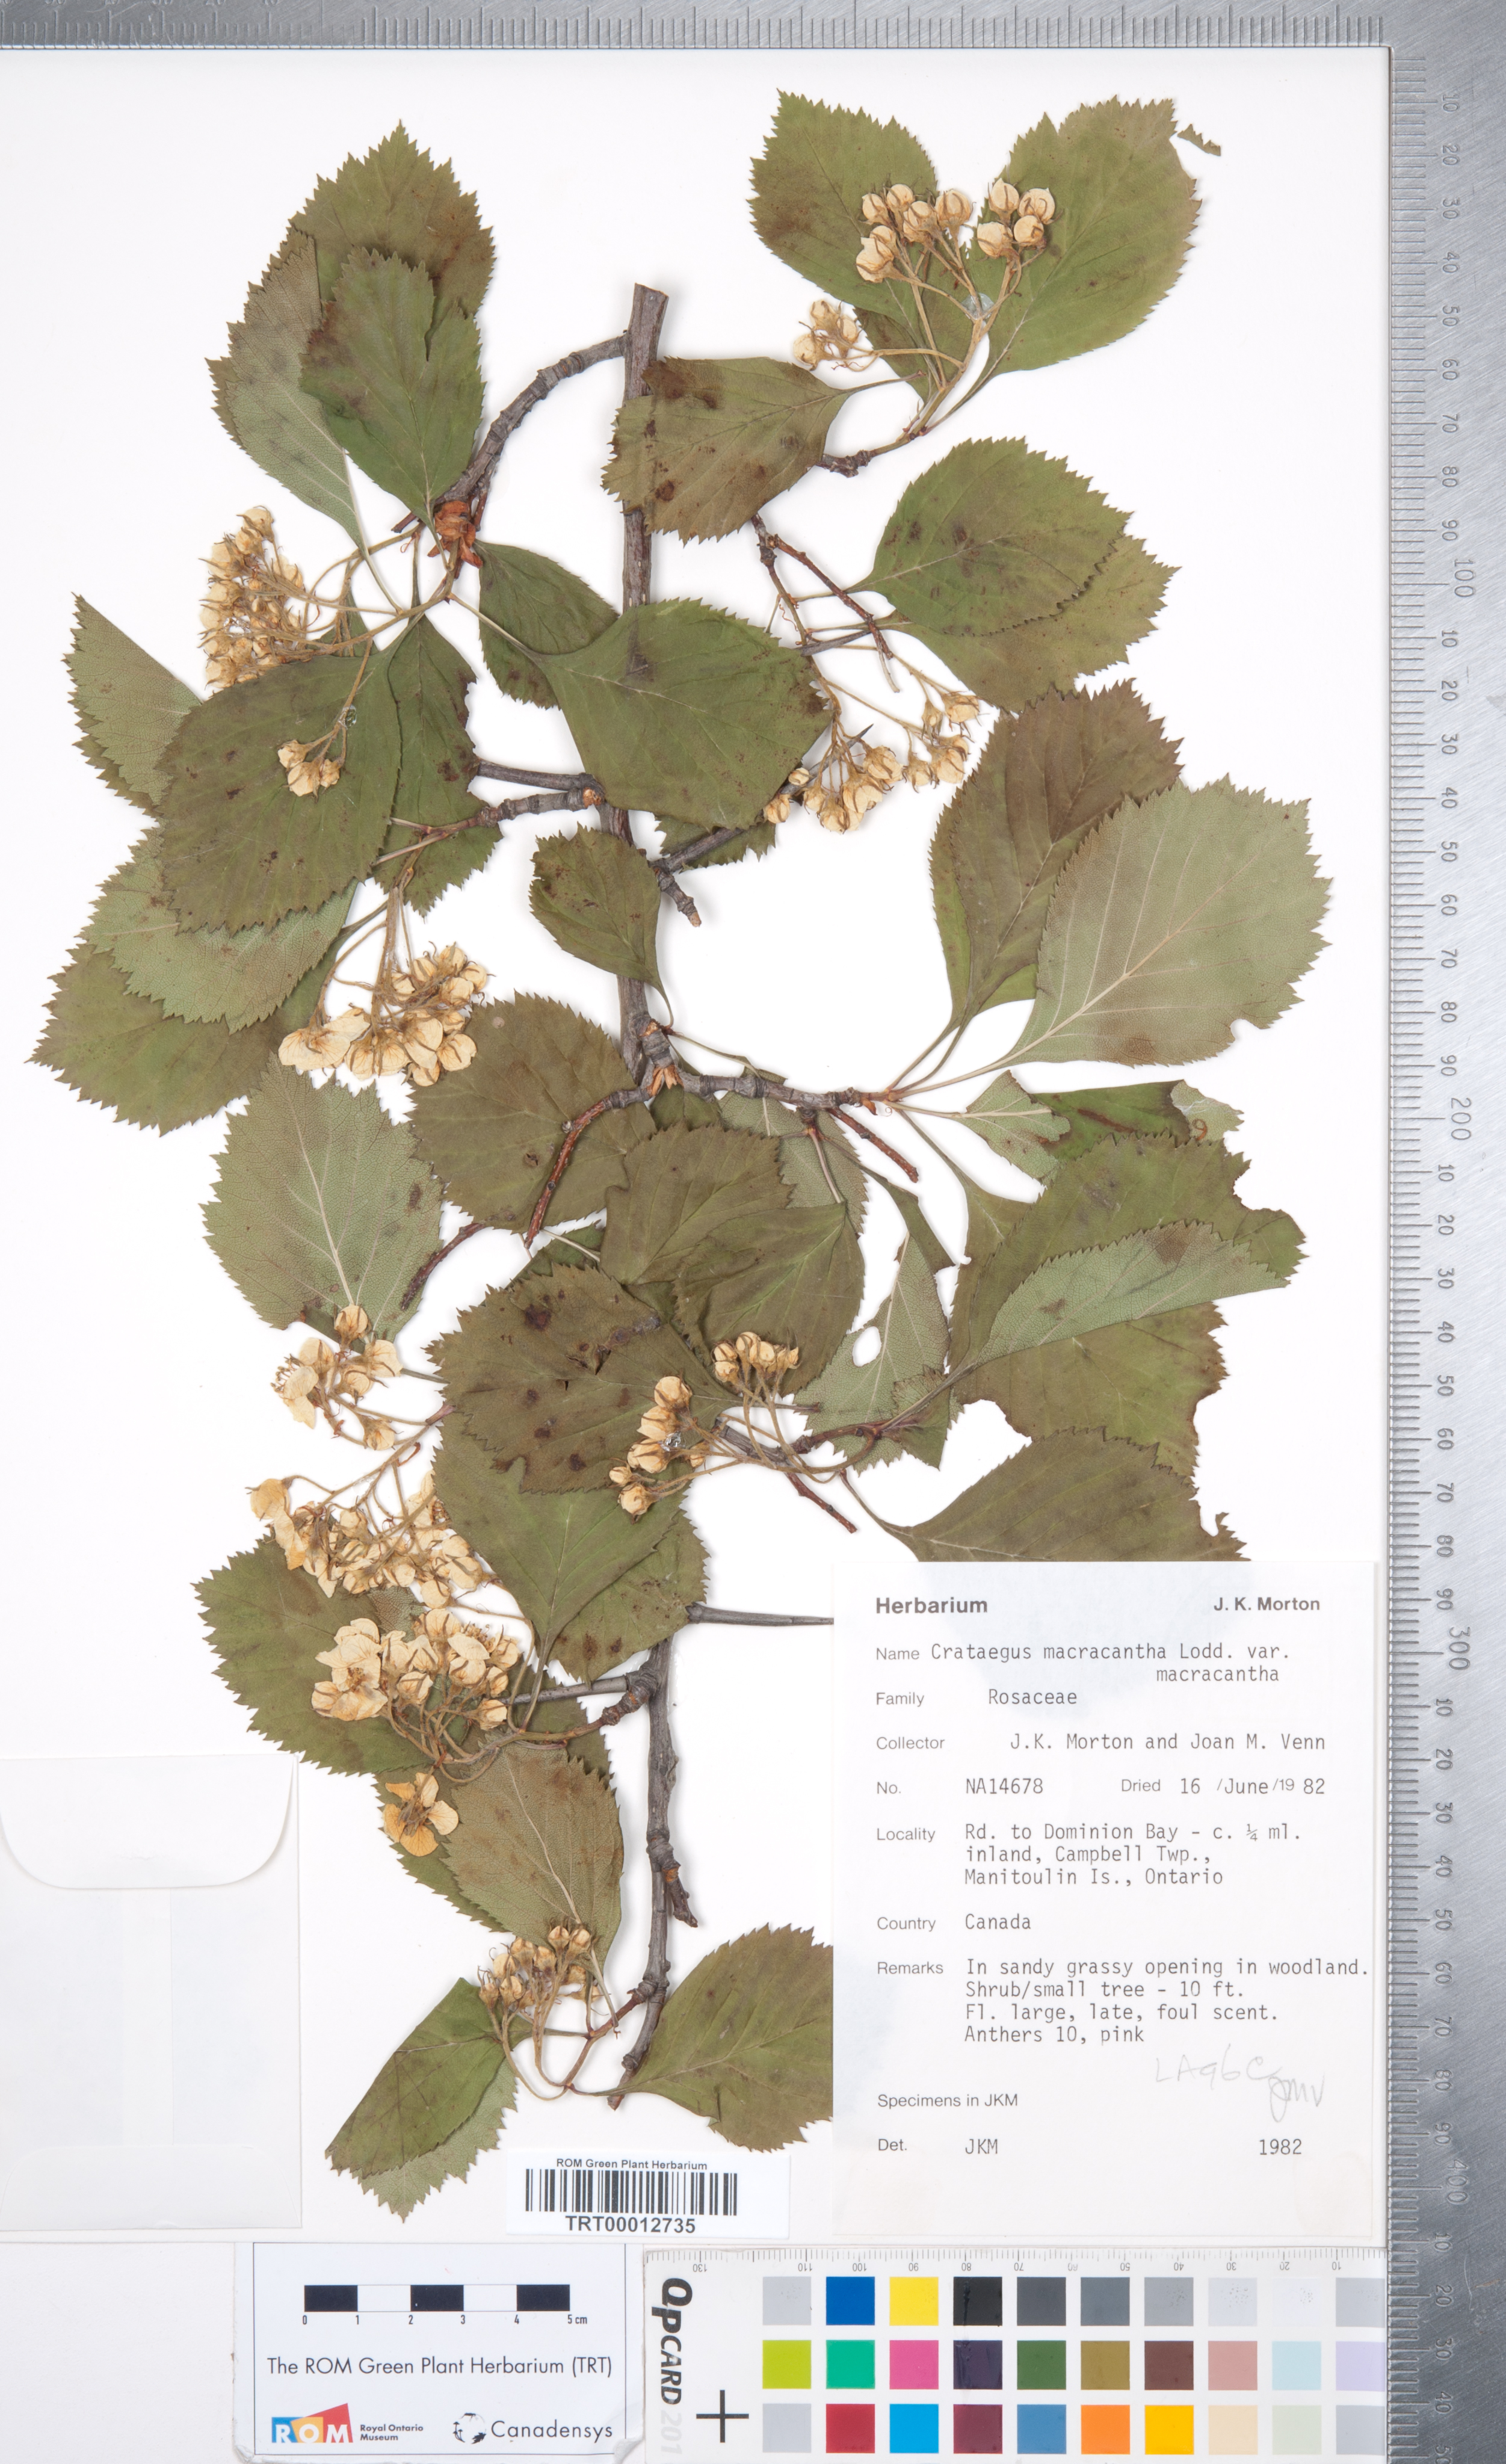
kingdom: Plantae
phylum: Tracheophyta
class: Magnoliopsida
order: Rosales
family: Rosaceae
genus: Crataegus
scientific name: Crataegus macracantha
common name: Large-thorn hawthorn
